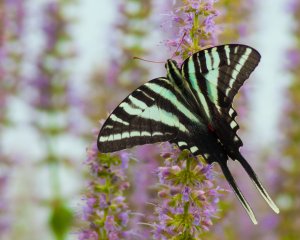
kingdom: Animalia
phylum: Arthropoda
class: Insecta
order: Lepidoptera
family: Papilionidae
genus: Protographium
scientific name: Protographium marcellus
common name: Zebra Swallowtail
